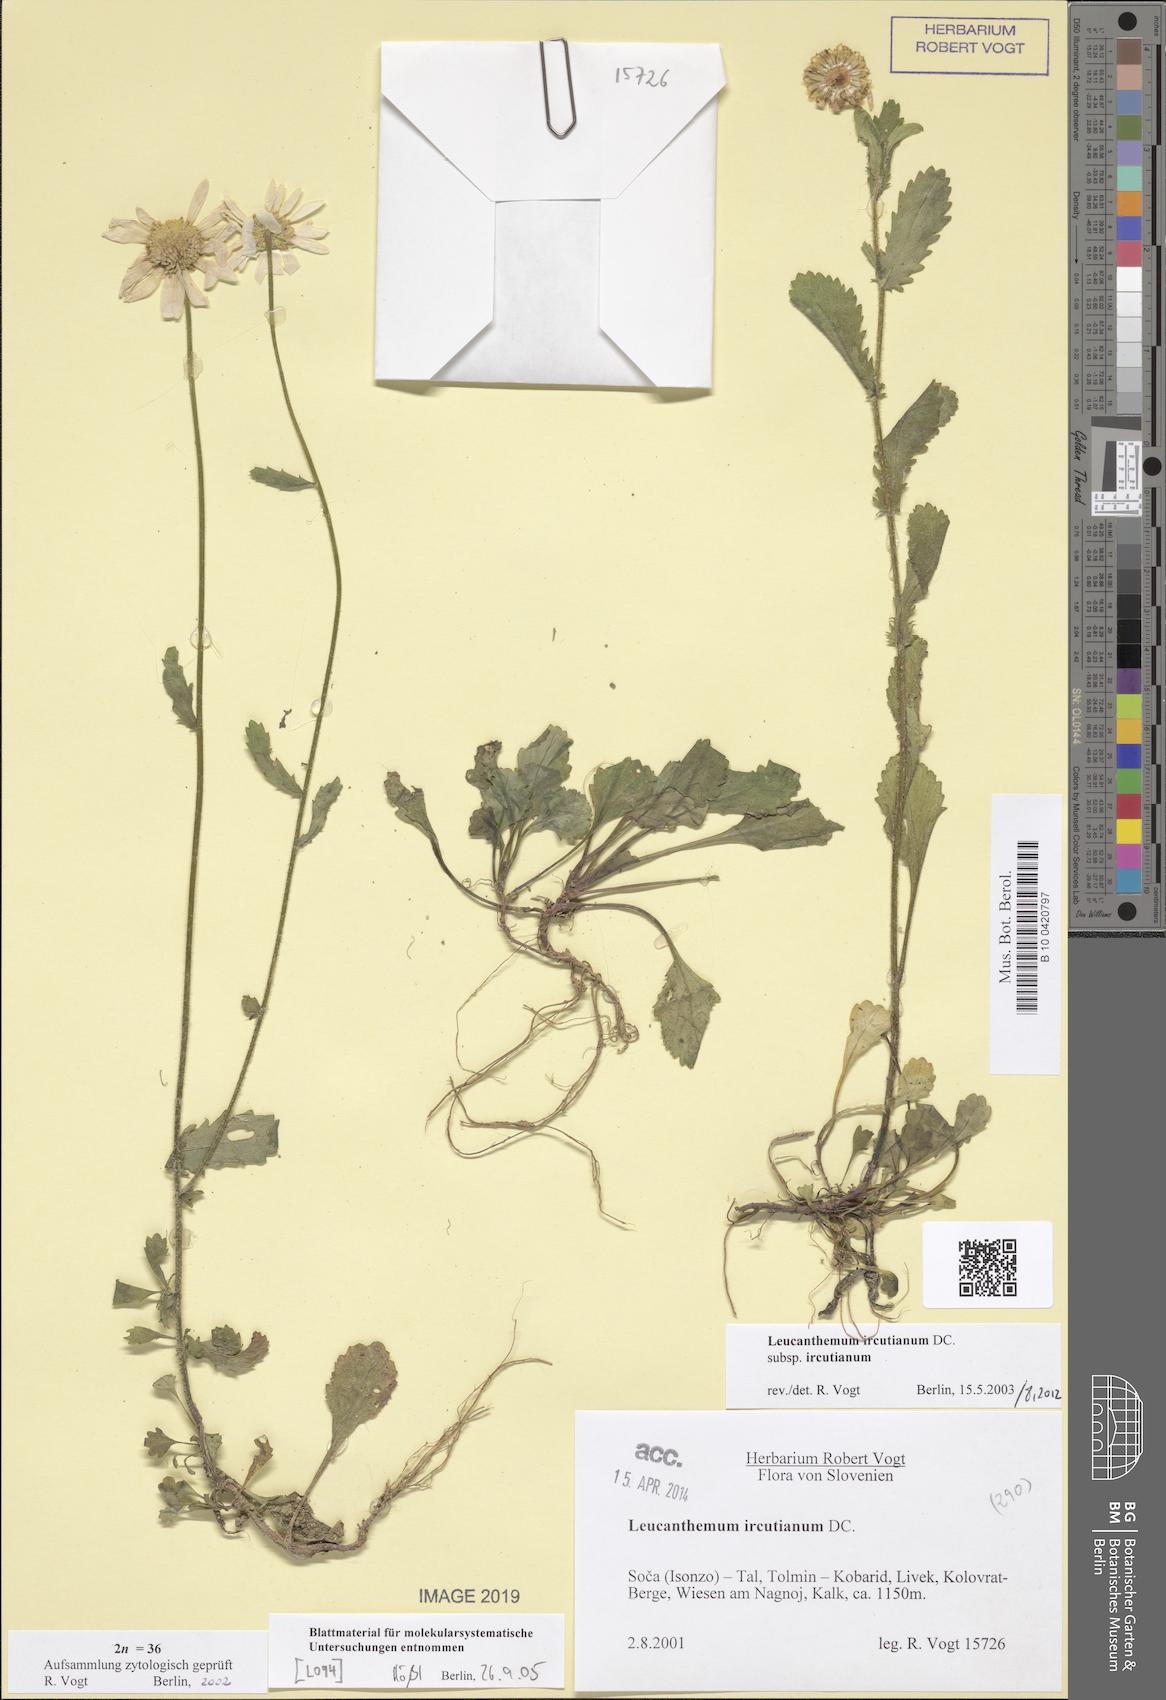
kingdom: Plantae
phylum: Tracheophyta
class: Magnoliopsida
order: Asterales
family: Asteraceae
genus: Leucanthemum
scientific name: Leucanthemum ircutianum
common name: Daisy
